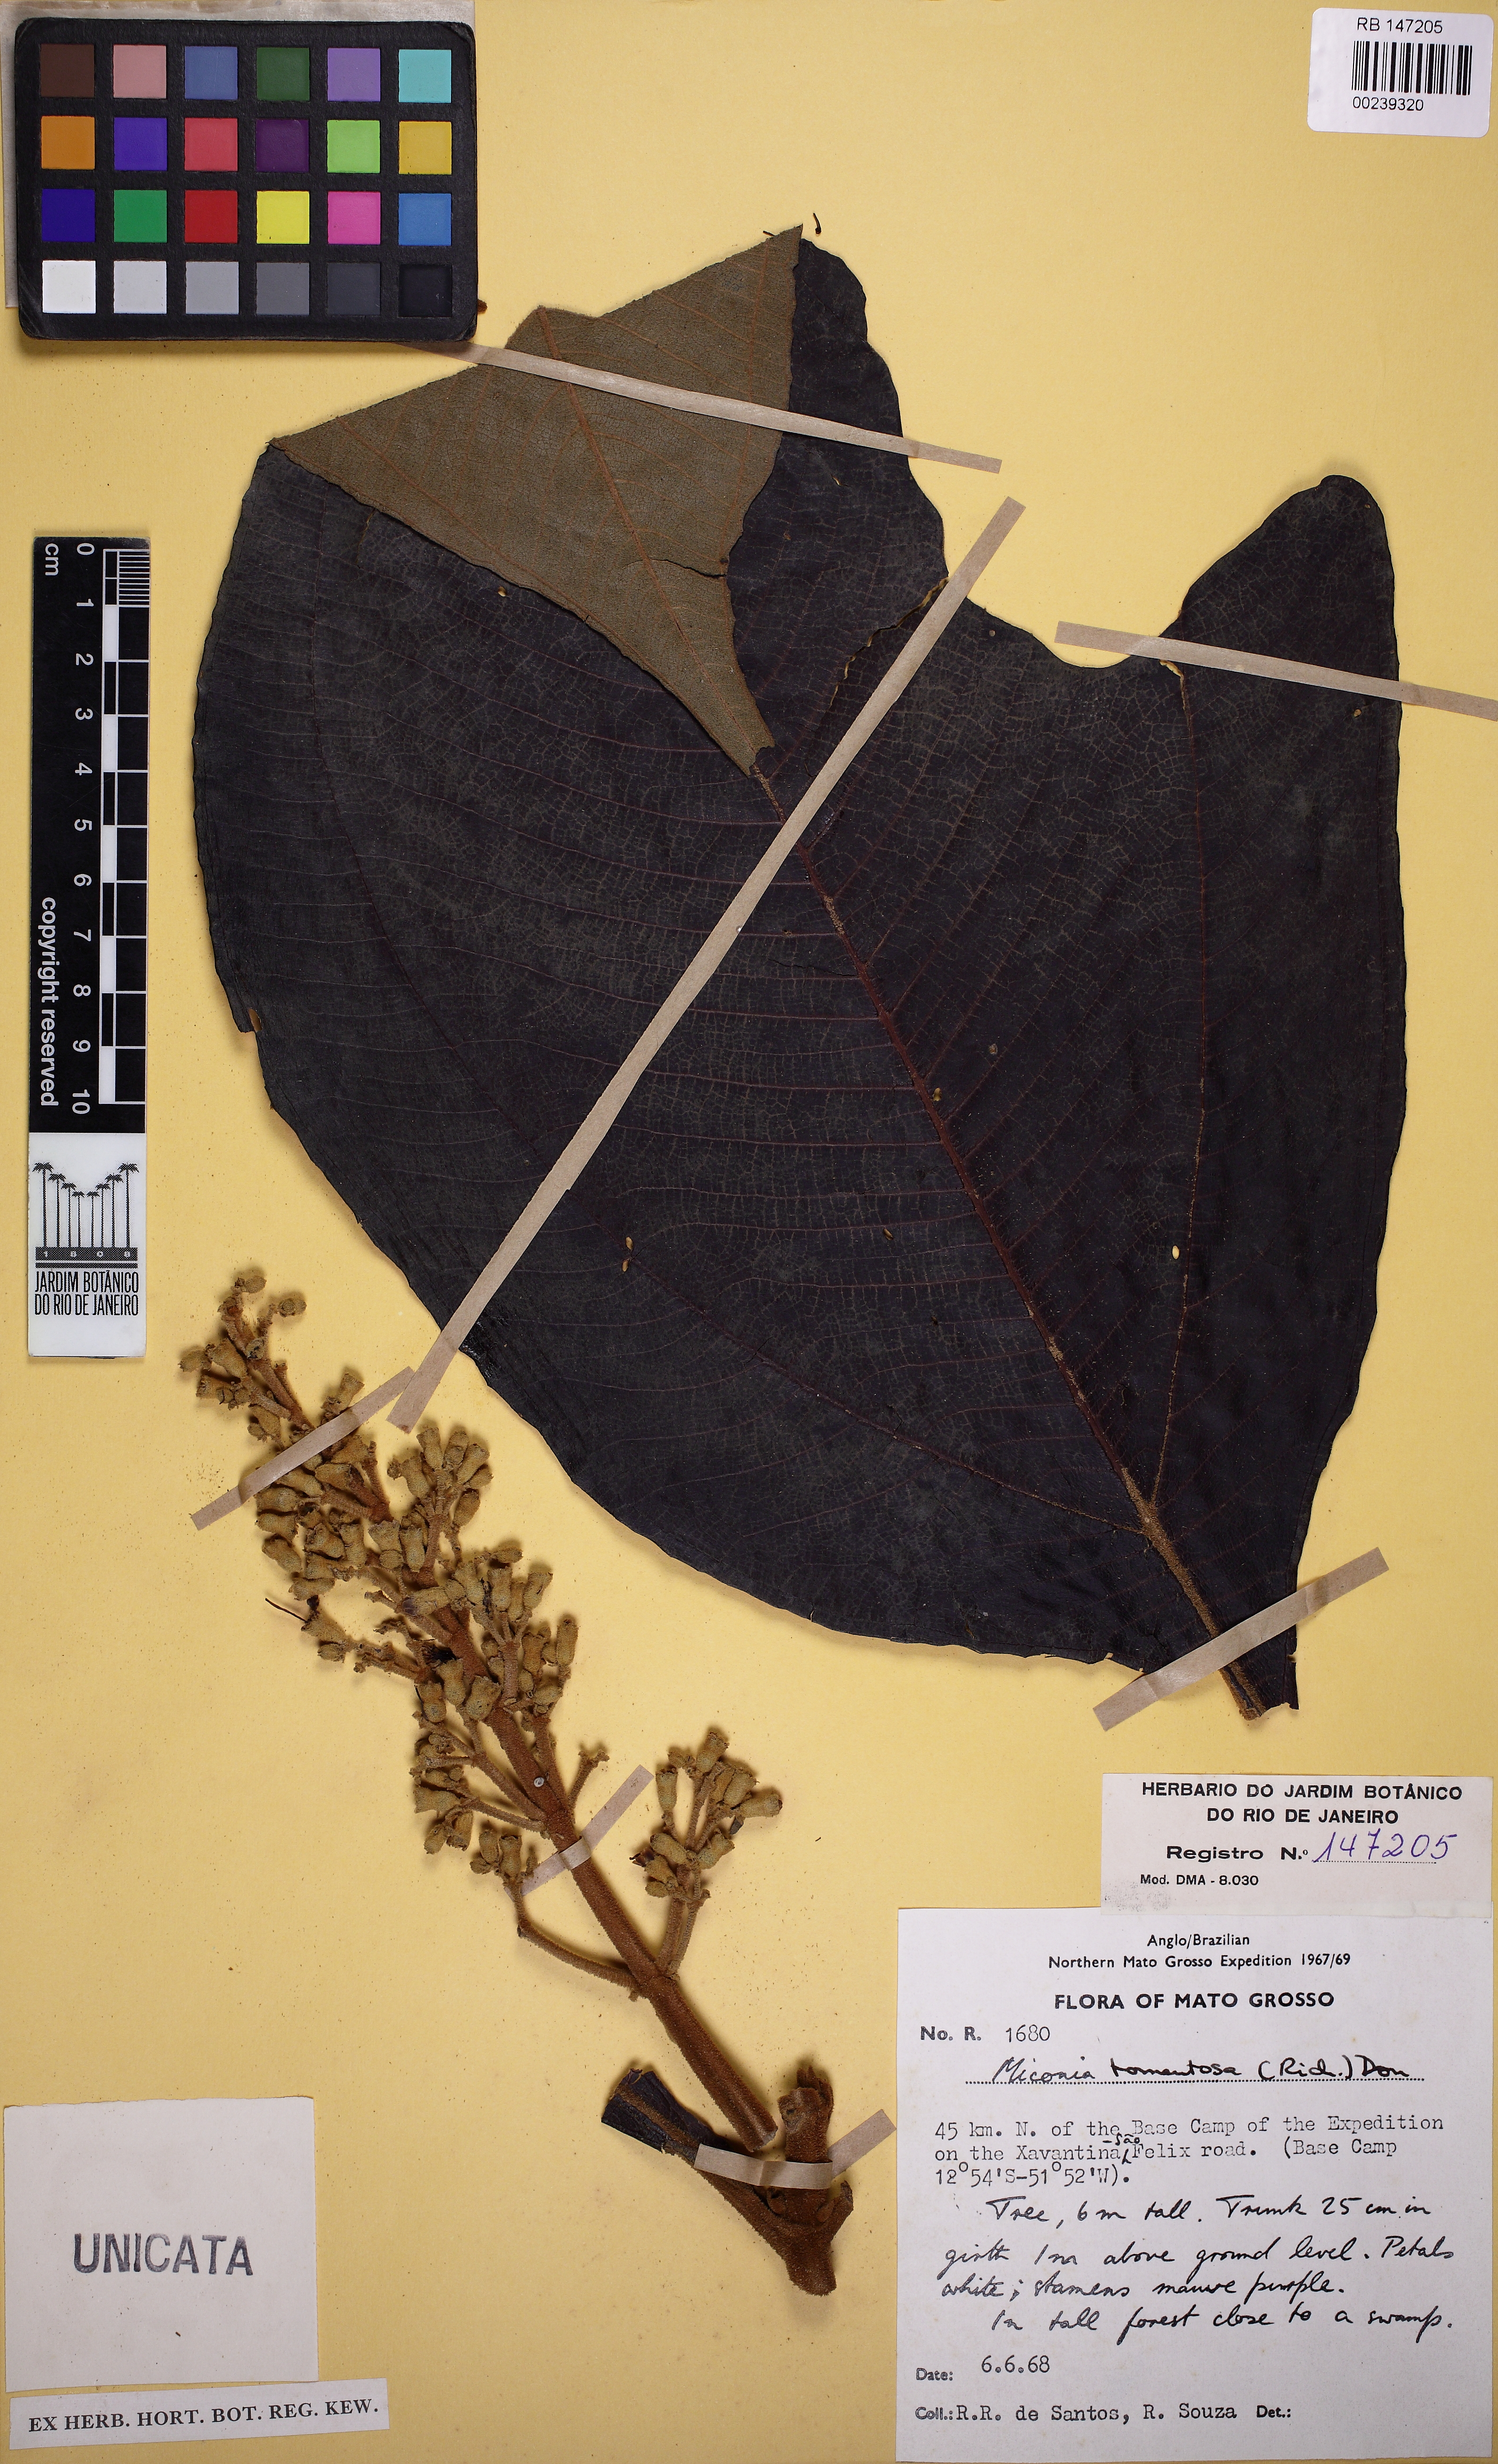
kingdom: Plantae
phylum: Tracheophyta
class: Magnoliopsida
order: Myrtales
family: Melastomataceae
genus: Miconia
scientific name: Miconia tomentosa
